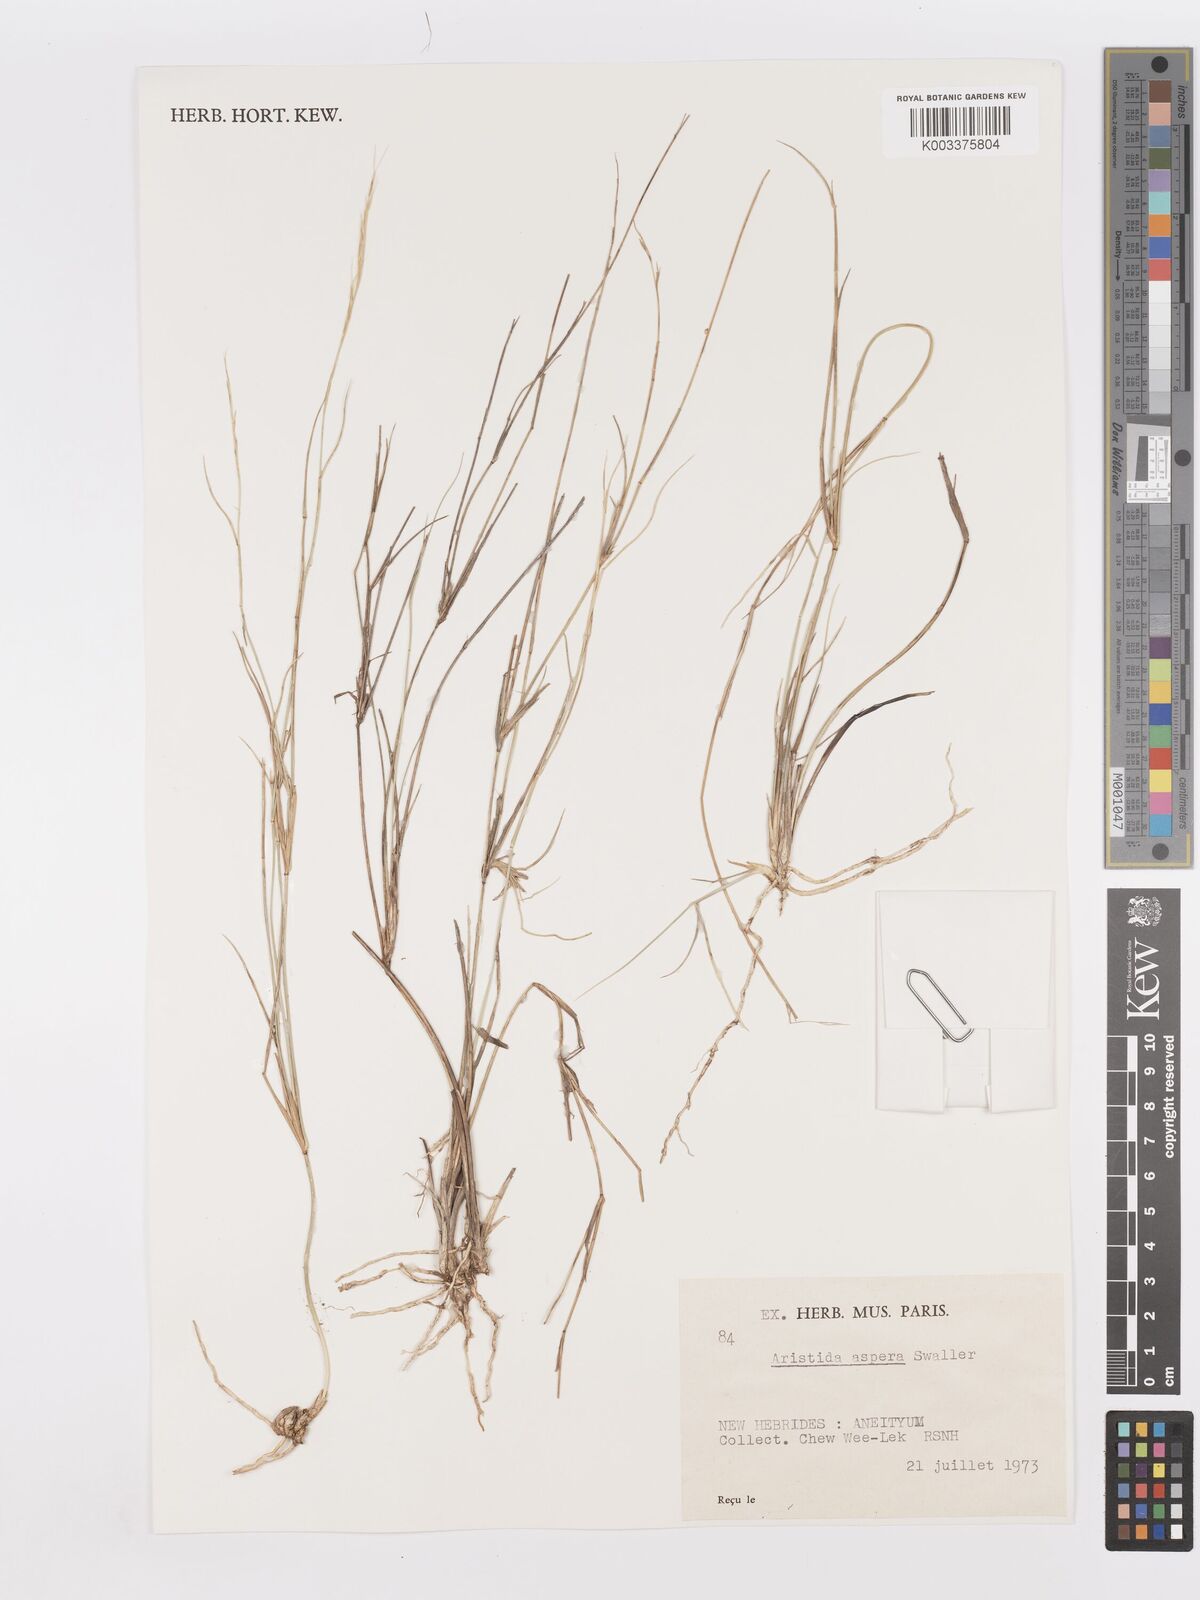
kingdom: Plantae
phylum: Tracheophyta
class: Liliopsida
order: Poales
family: Poaceae
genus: Aristida
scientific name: Aristida ramosa
